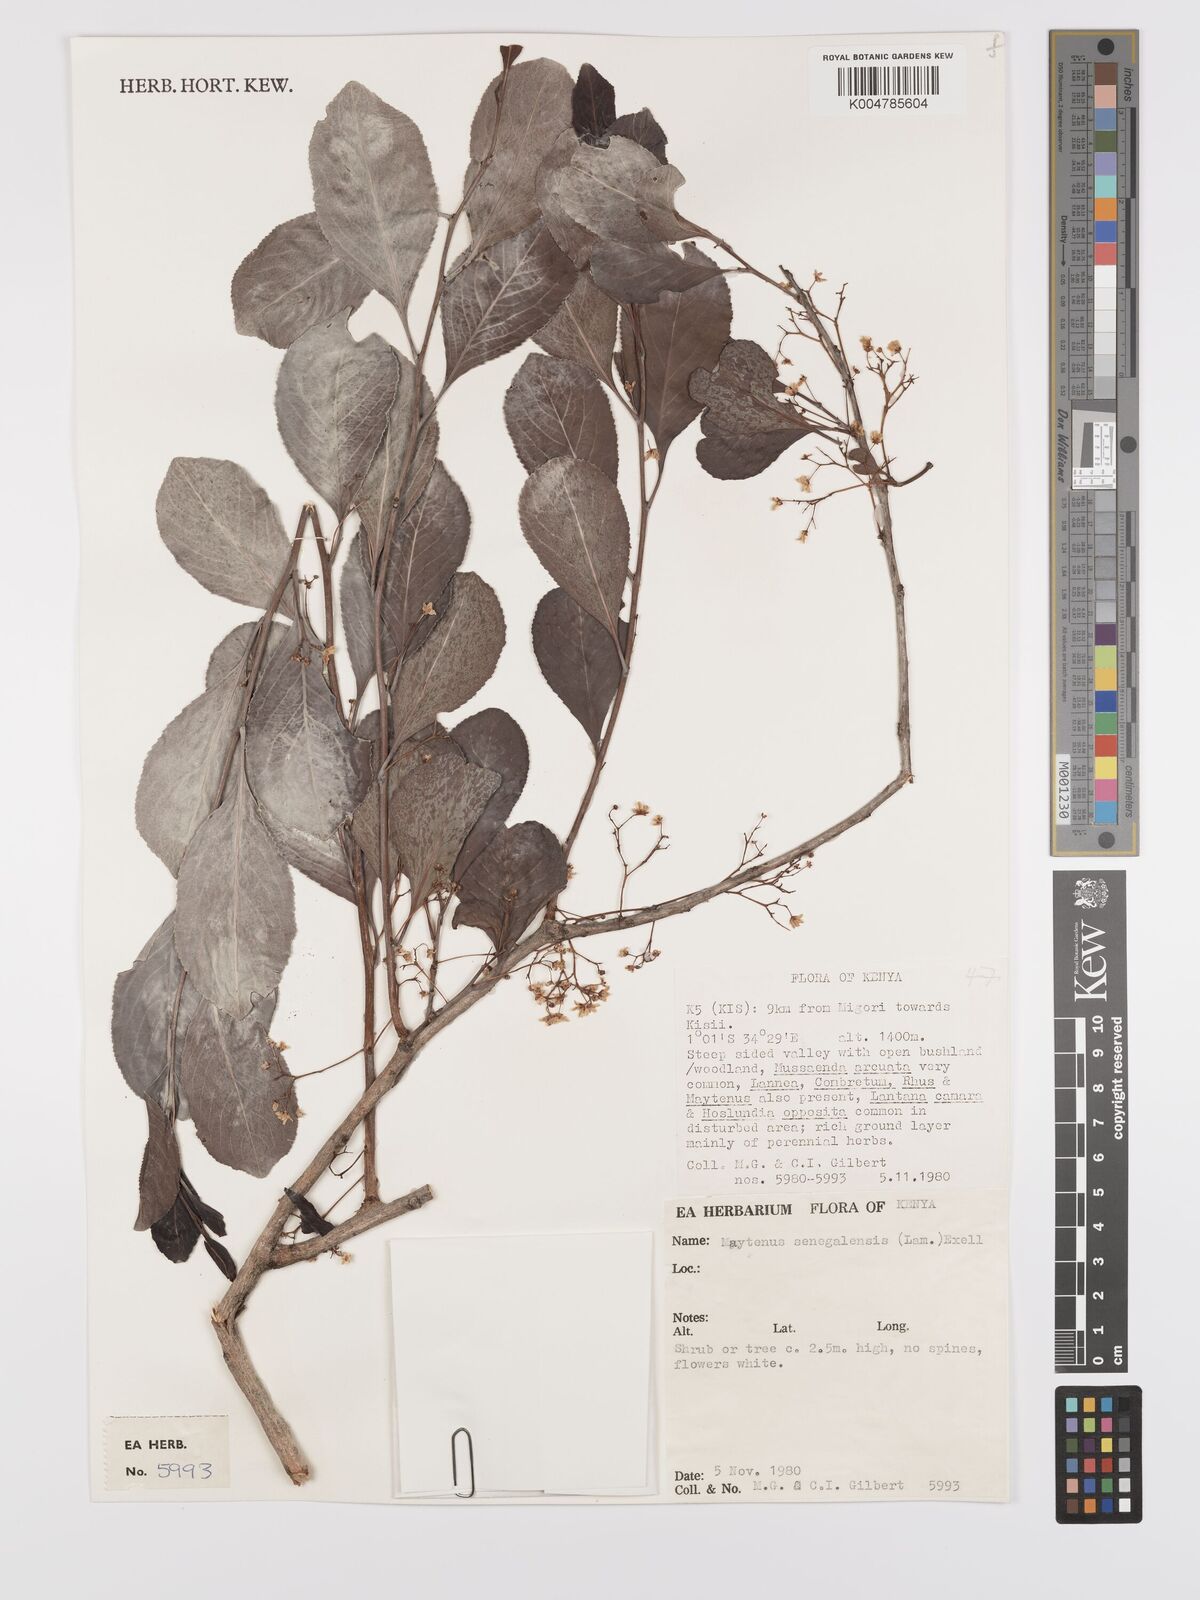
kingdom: Plantae
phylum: Tracheophyta
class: Magnoliopsida
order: Celastrales
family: Celastraceae
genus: Gymnosporia
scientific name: Gymnosporia senegalensis
